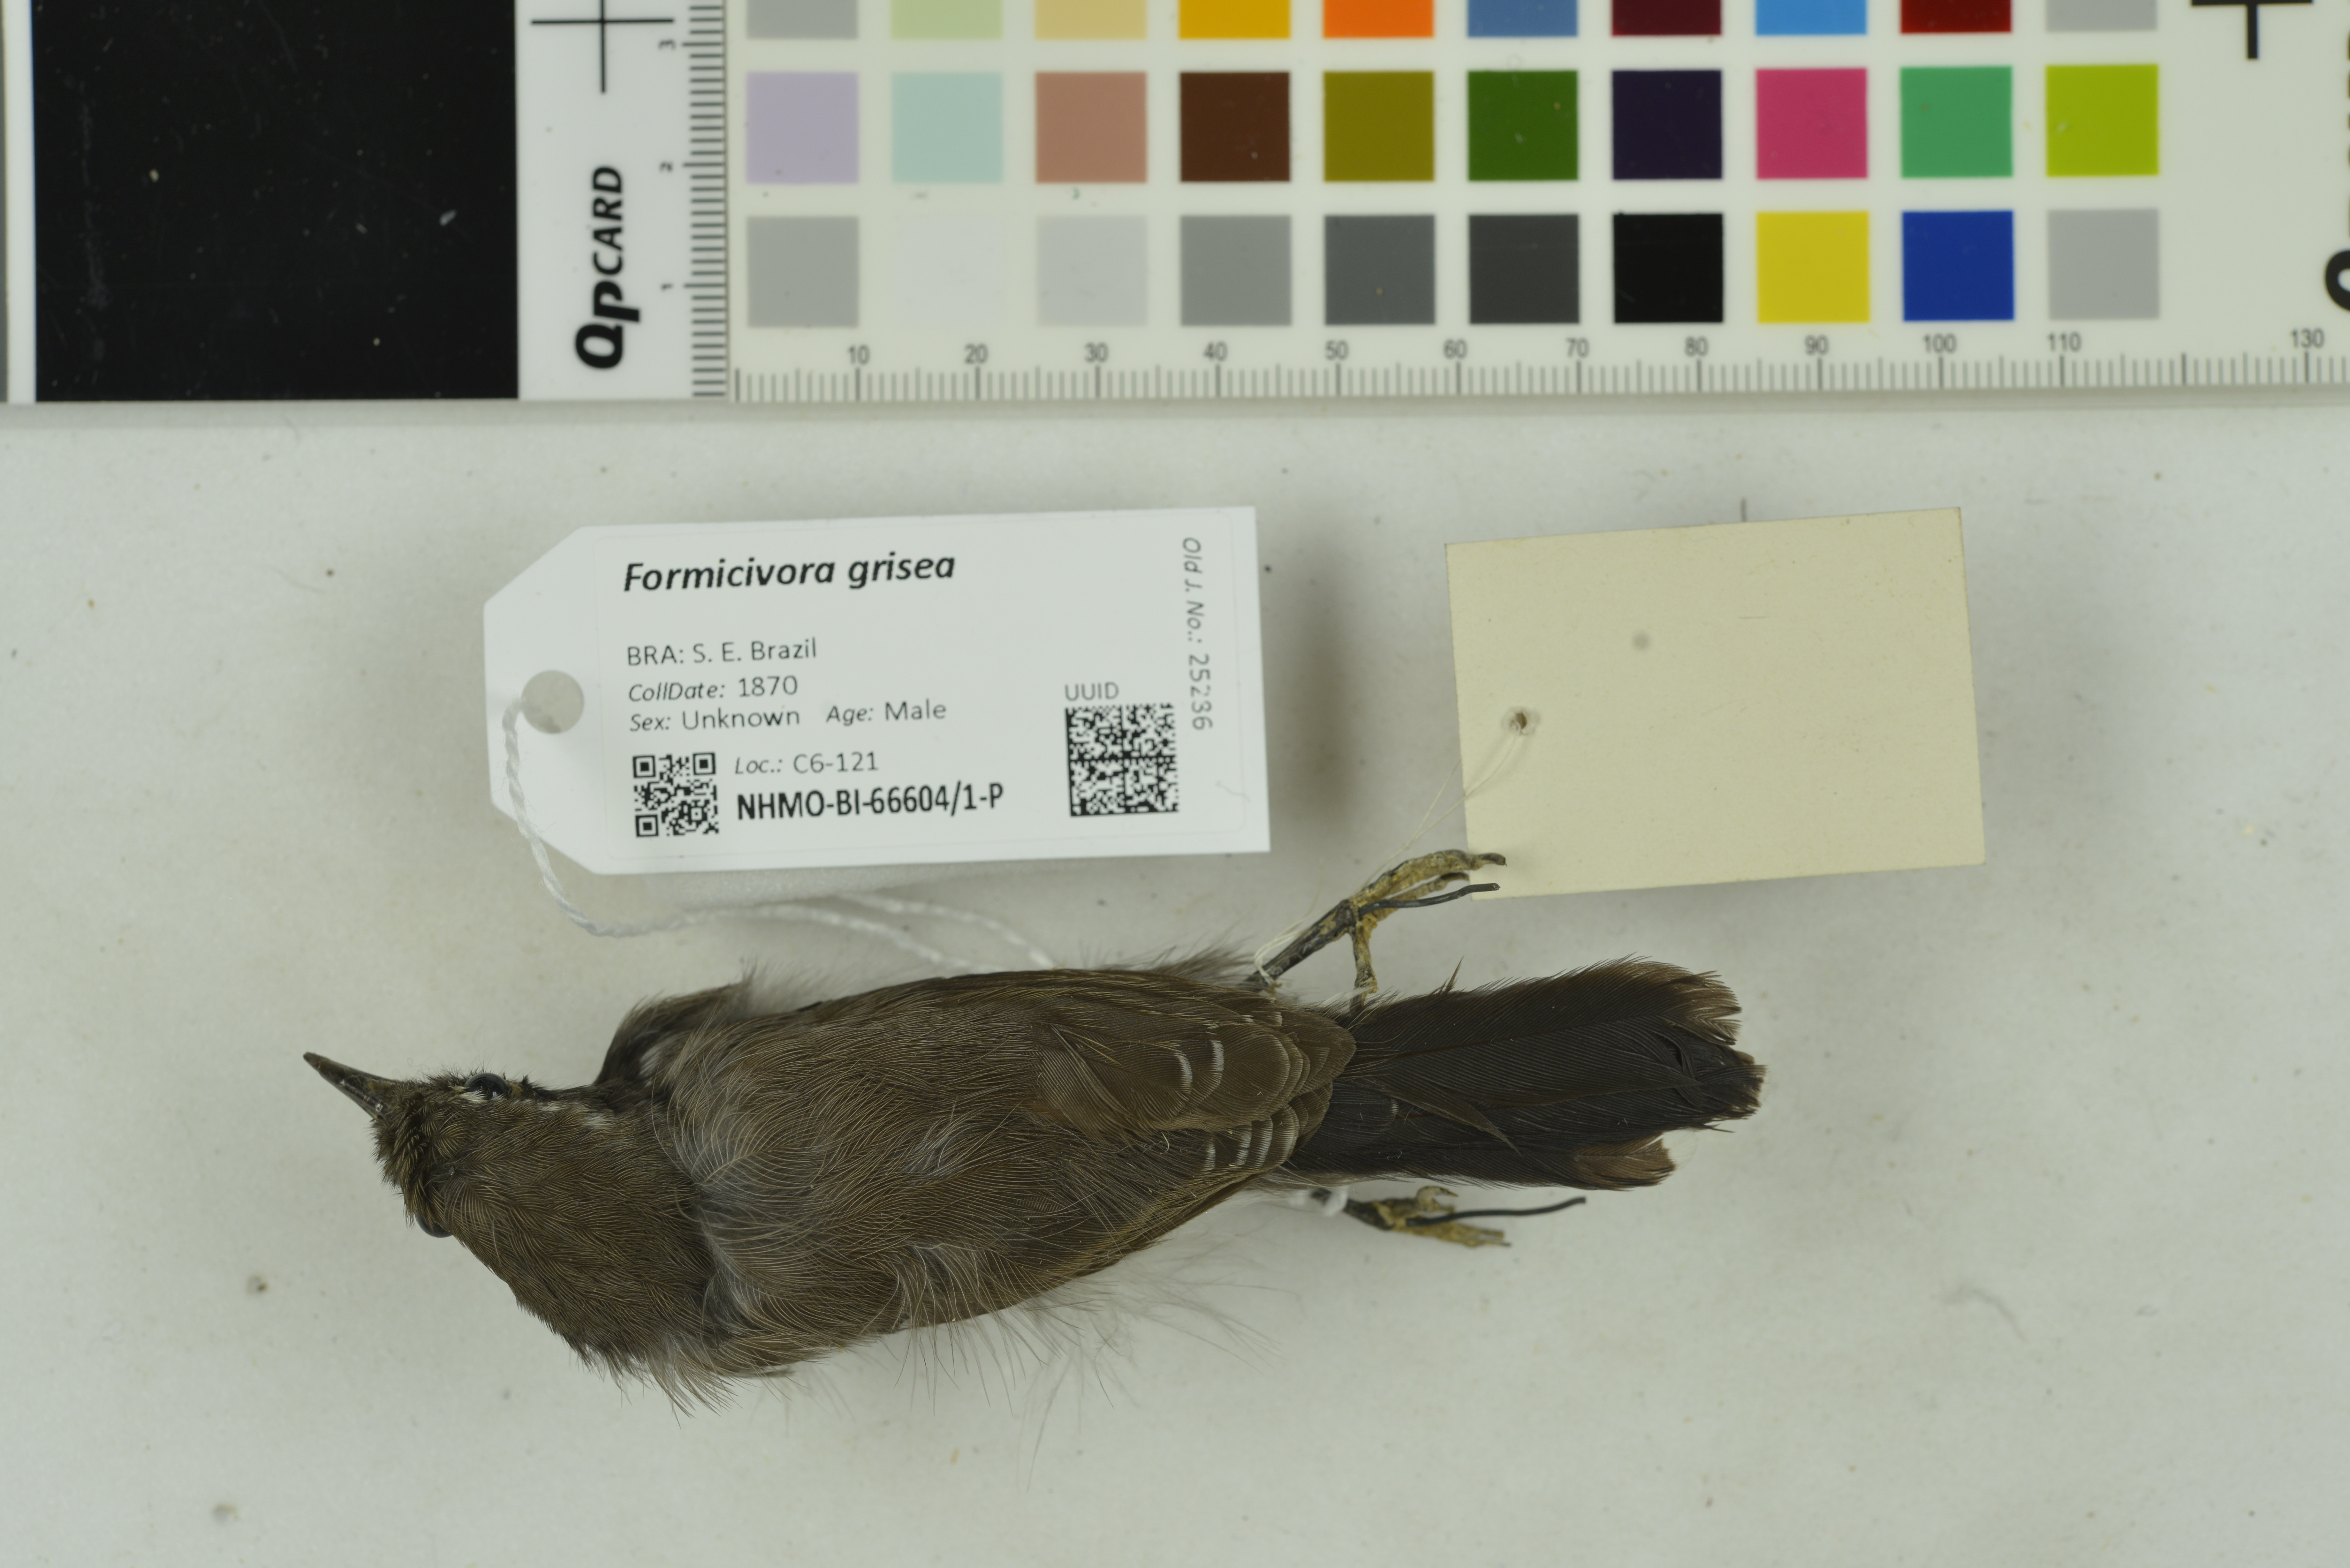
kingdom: Animalia
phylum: Chordata
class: Aves
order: Passeriformes
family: Thamnophilidae
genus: Formicivora
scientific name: Formicivora grisea
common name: Southern white-fringed antwren
